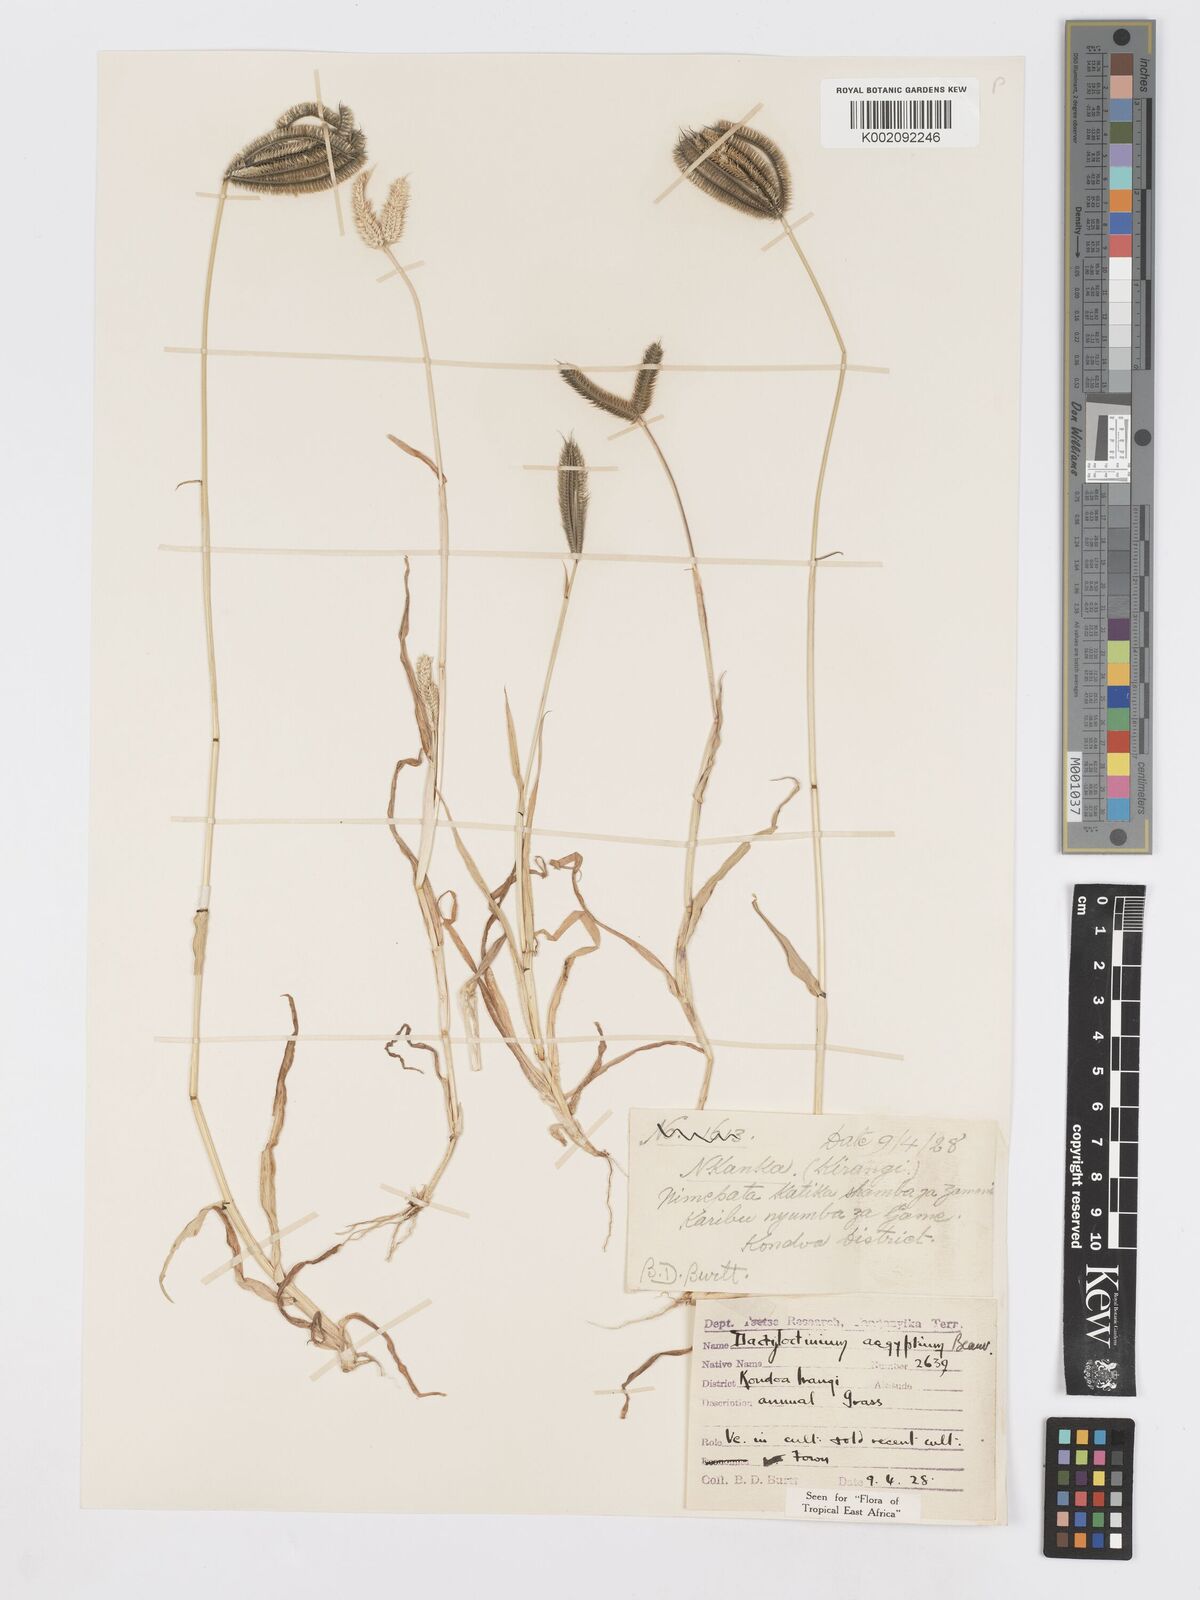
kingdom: Plantae
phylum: Tracheophyta
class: Liliopsida
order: Poales
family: Poaceae
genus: Dactyloctenium
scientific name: Dactyloctenium aegyptium
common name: Egyptian grass
